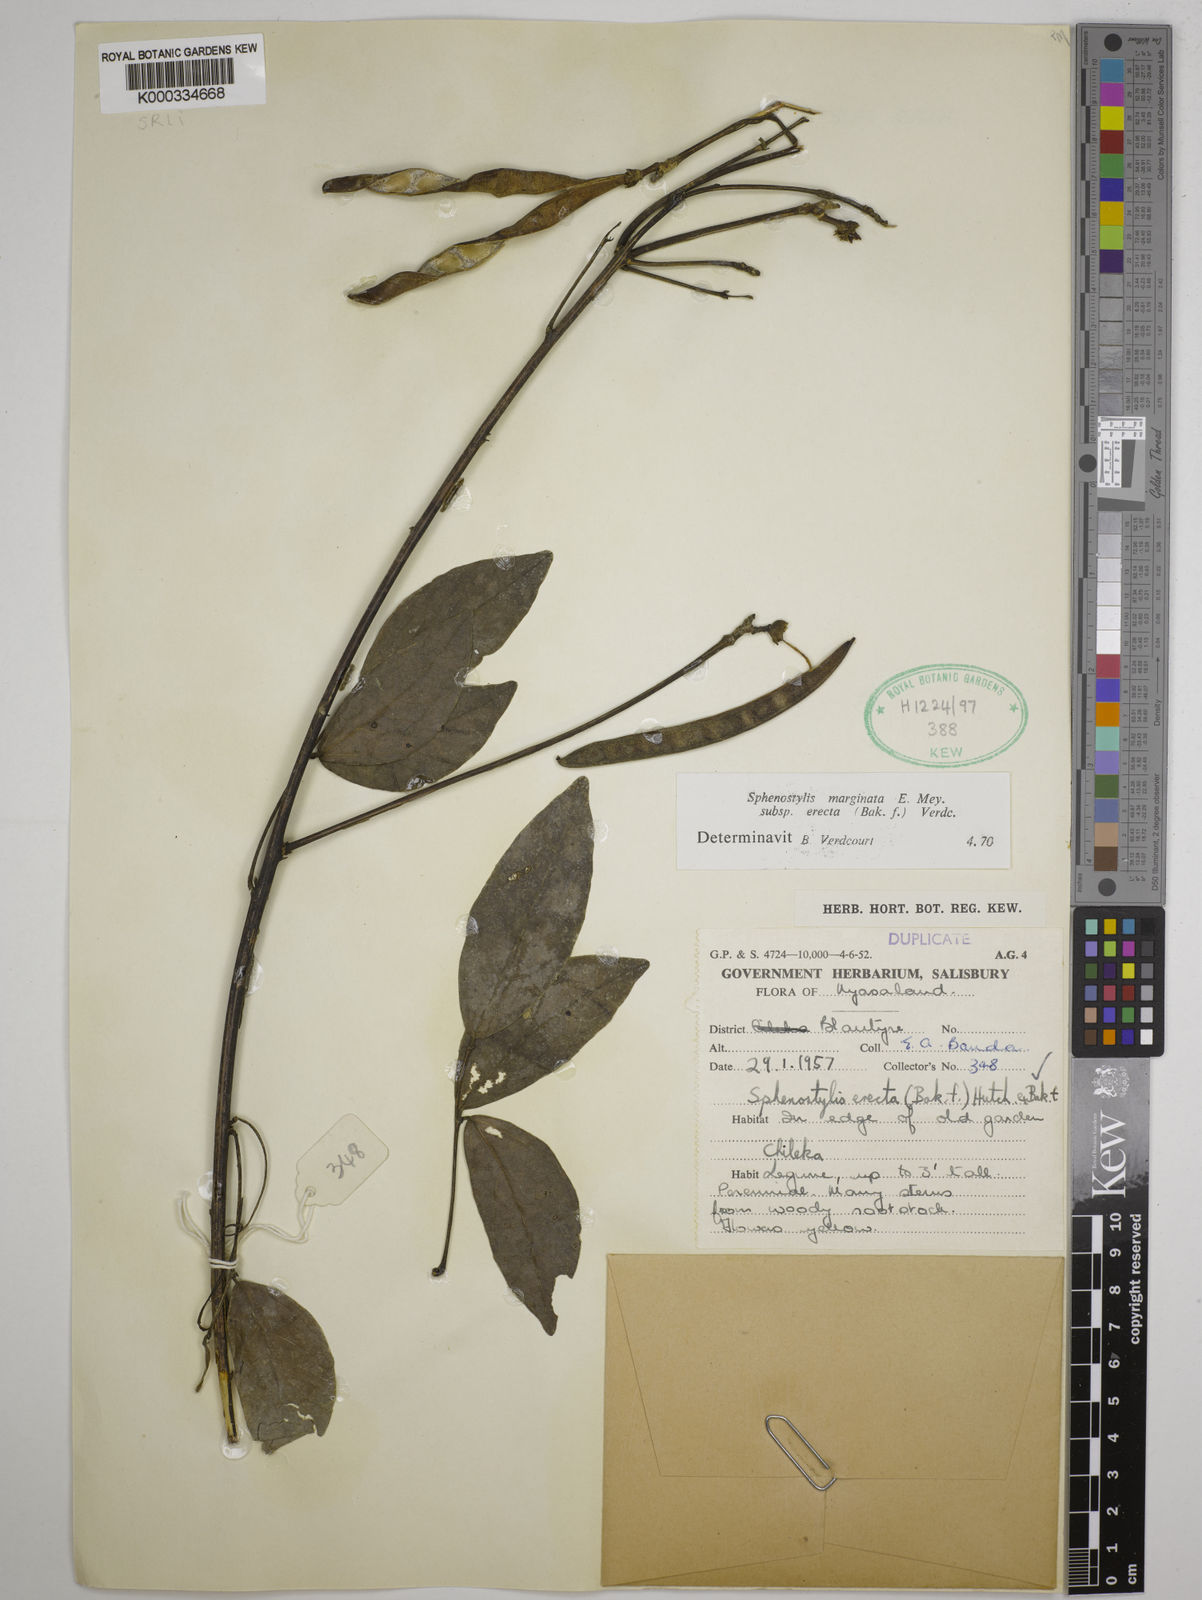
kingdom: Plantae
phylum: Tracheophyta
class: Magnoliopsida
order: Fabales
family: Fabaceae
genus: Sphenostylis
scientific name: Sphenostylis erecta
